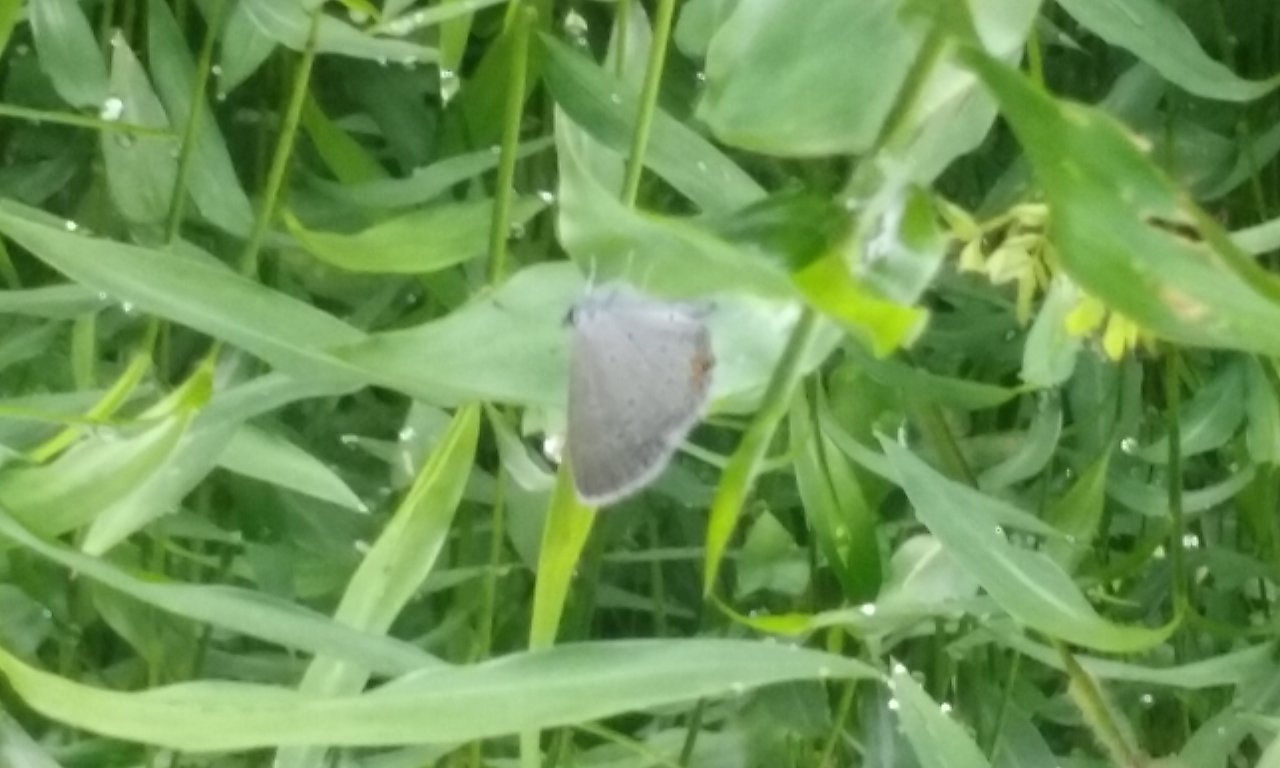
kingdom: Animalia
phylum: Arthropoda
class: Insecta
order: Lepidoptera
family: Lycaenidae
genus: Elkalyce
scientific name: Elkalyce comyntas
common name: Eastern Tailed-Blue
